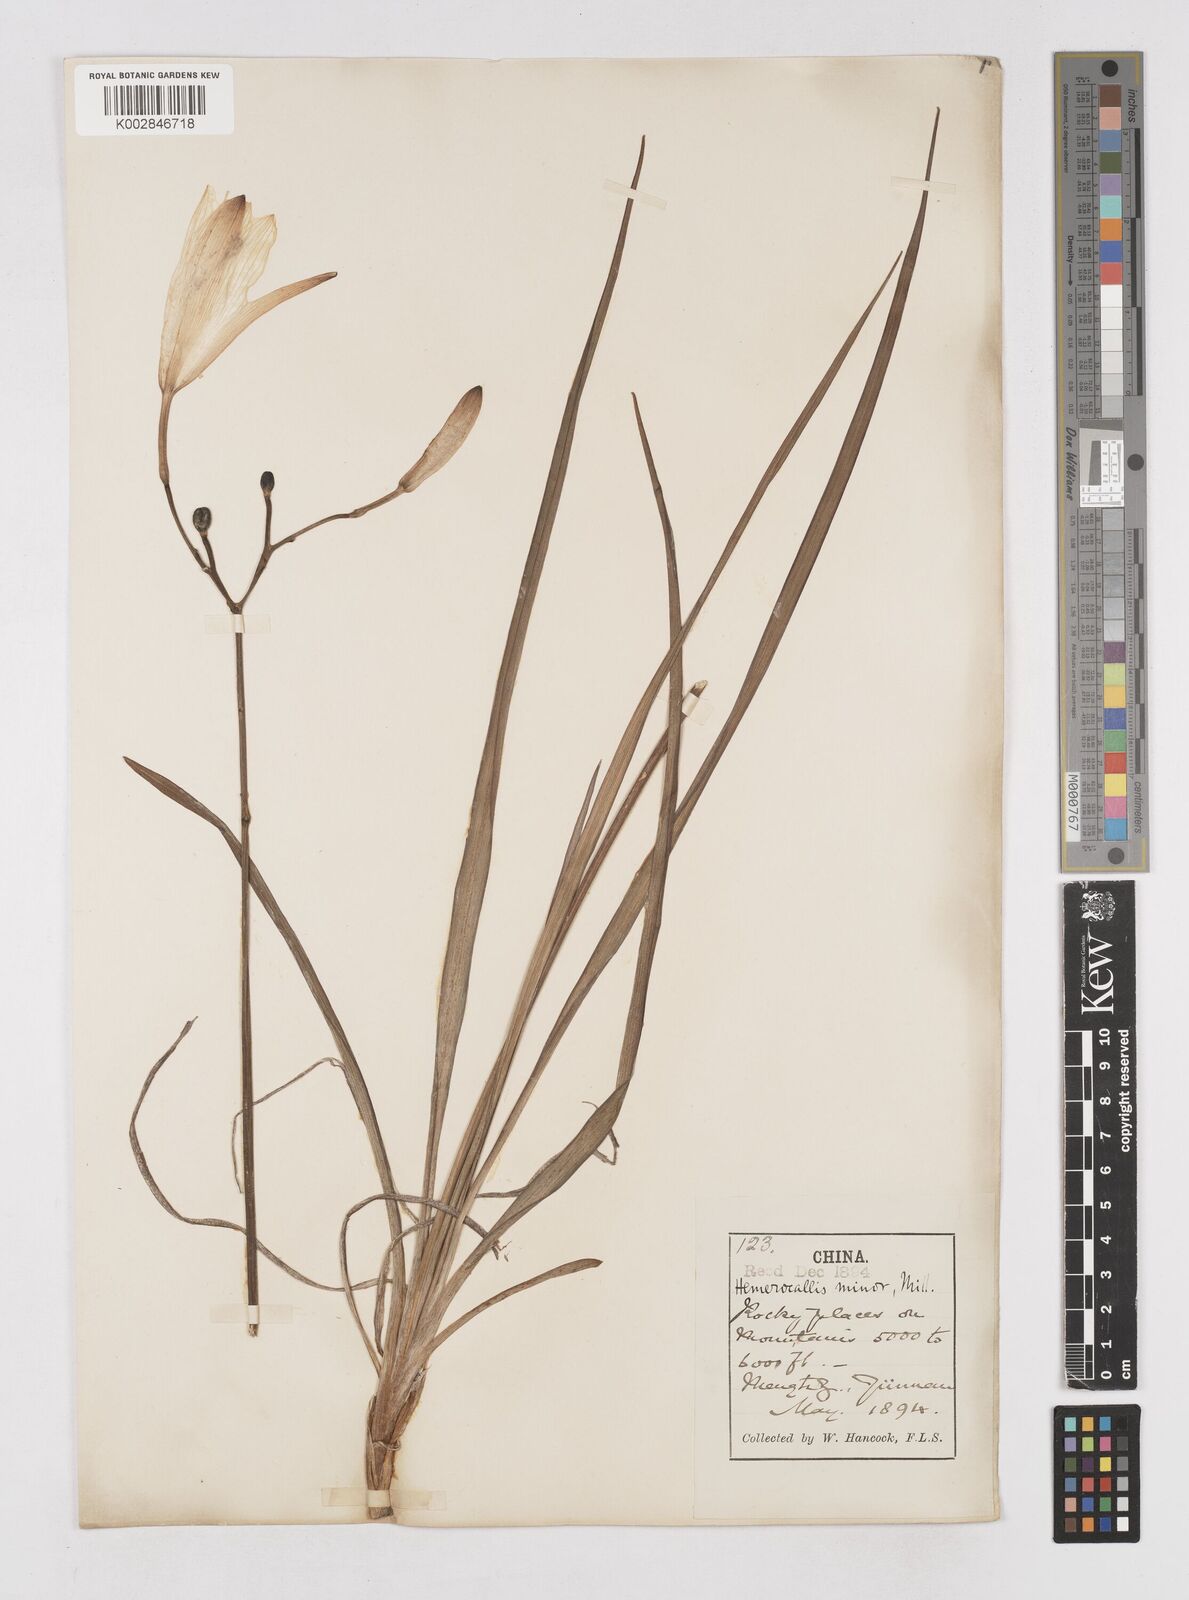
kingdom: Plantae
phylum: Tracheophyta
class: Liliopsida
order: Asparagales
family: Asphodelaceae
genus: Hemerocallis
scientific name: Hemerocallis
